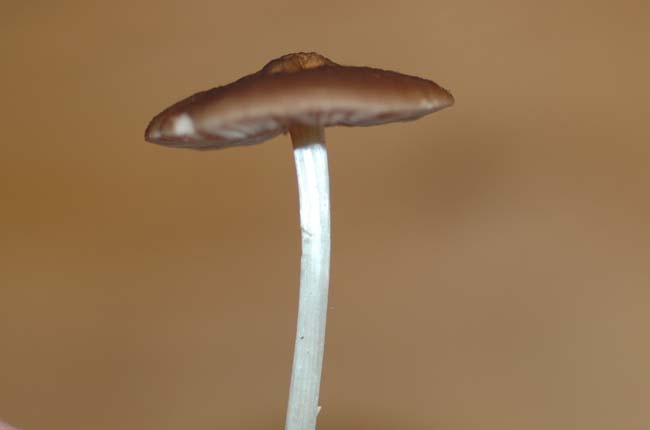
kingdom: Fungi
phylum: Basidiomycota
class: Agaricomycetes
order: Agaricales
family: Pluteaceae
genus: Pluteus
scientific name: Pluteus phlebophorus
